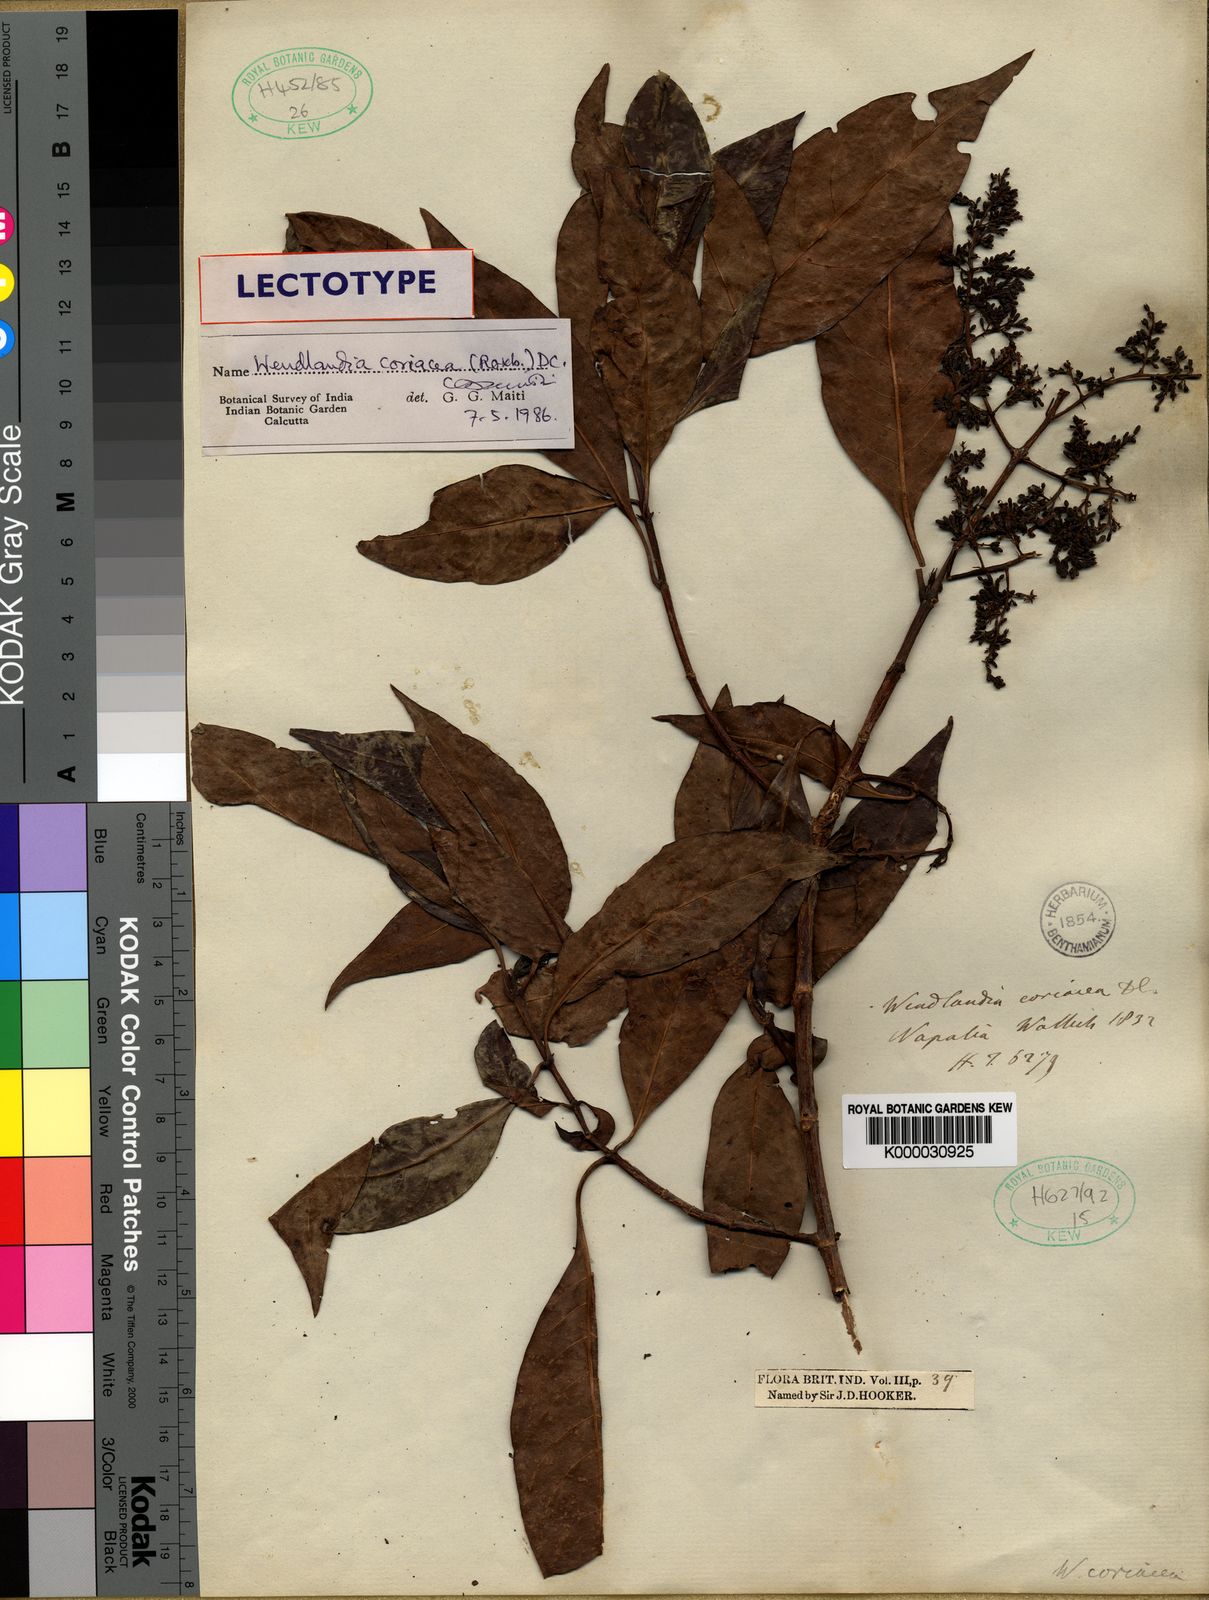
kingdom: Plantae
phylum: Tracheophyta
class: Magnoliopsida
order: Gentianales
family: Rubiaceae
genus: Wendlandia
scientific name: Wendlandia coriacea
